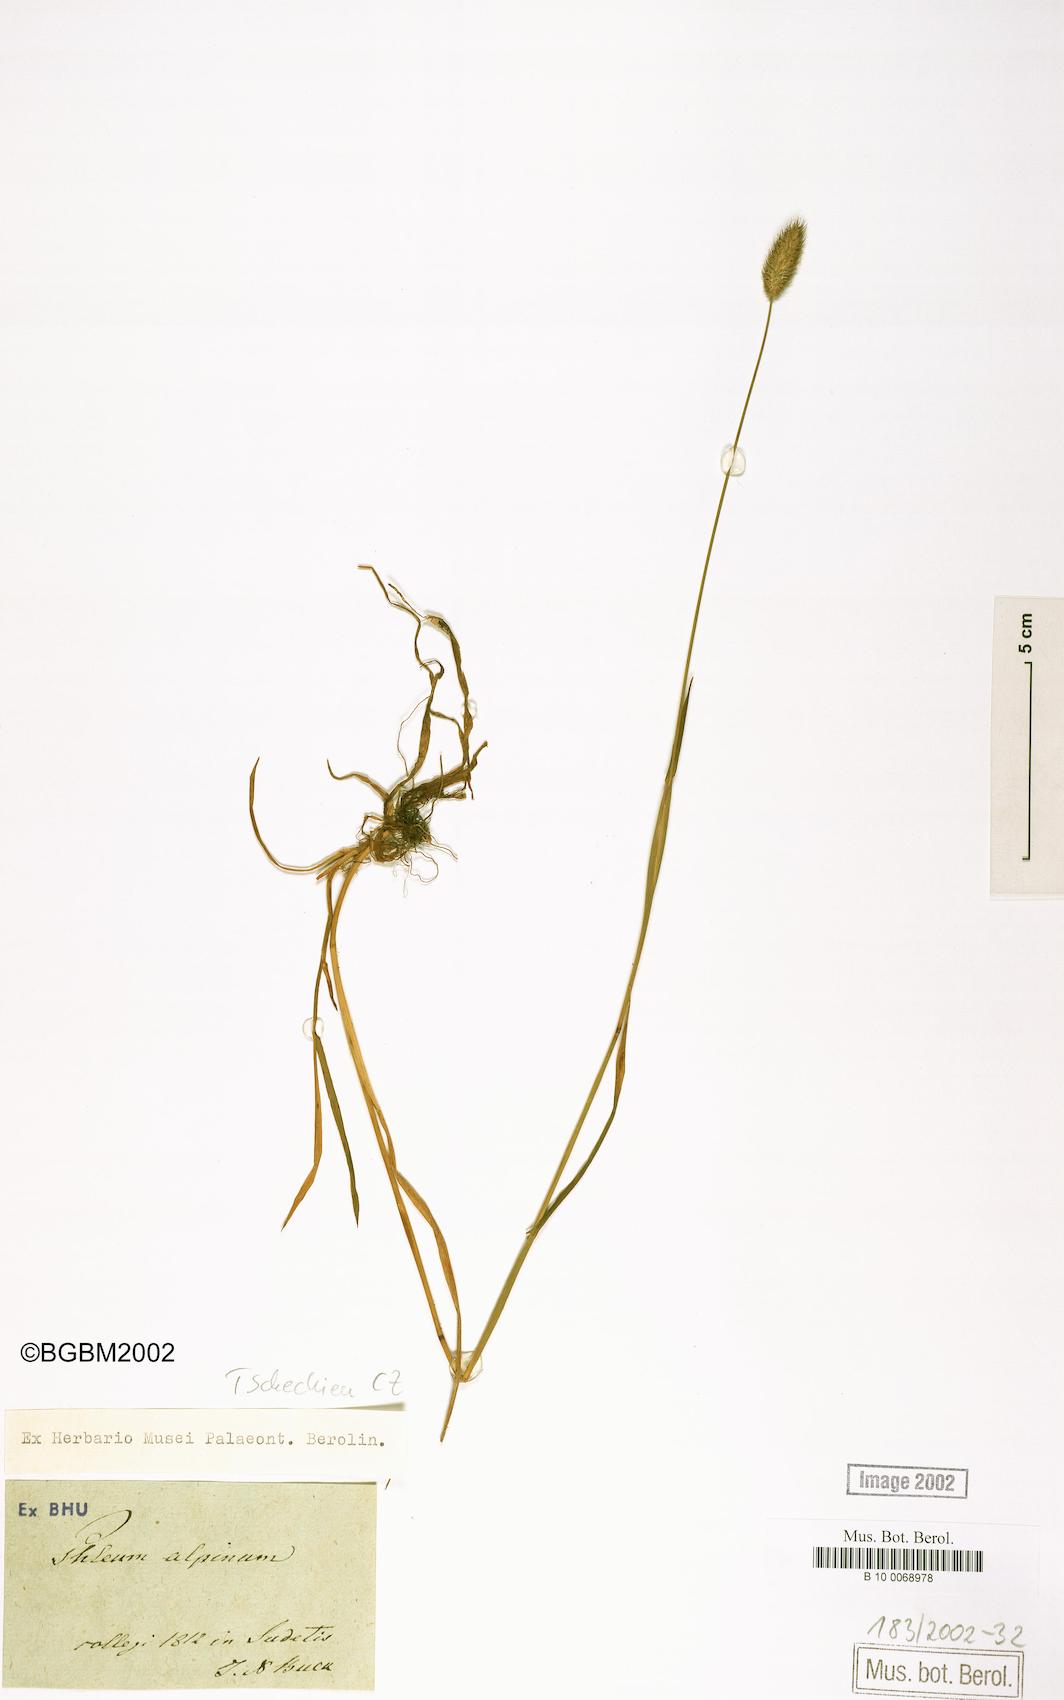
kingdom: Plantae
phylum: Tracheophyta
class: Liliopsida
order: Poales
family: Poaceae
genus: Phleum
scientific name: Phleum alpinum
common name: Alpine cat's-tail
